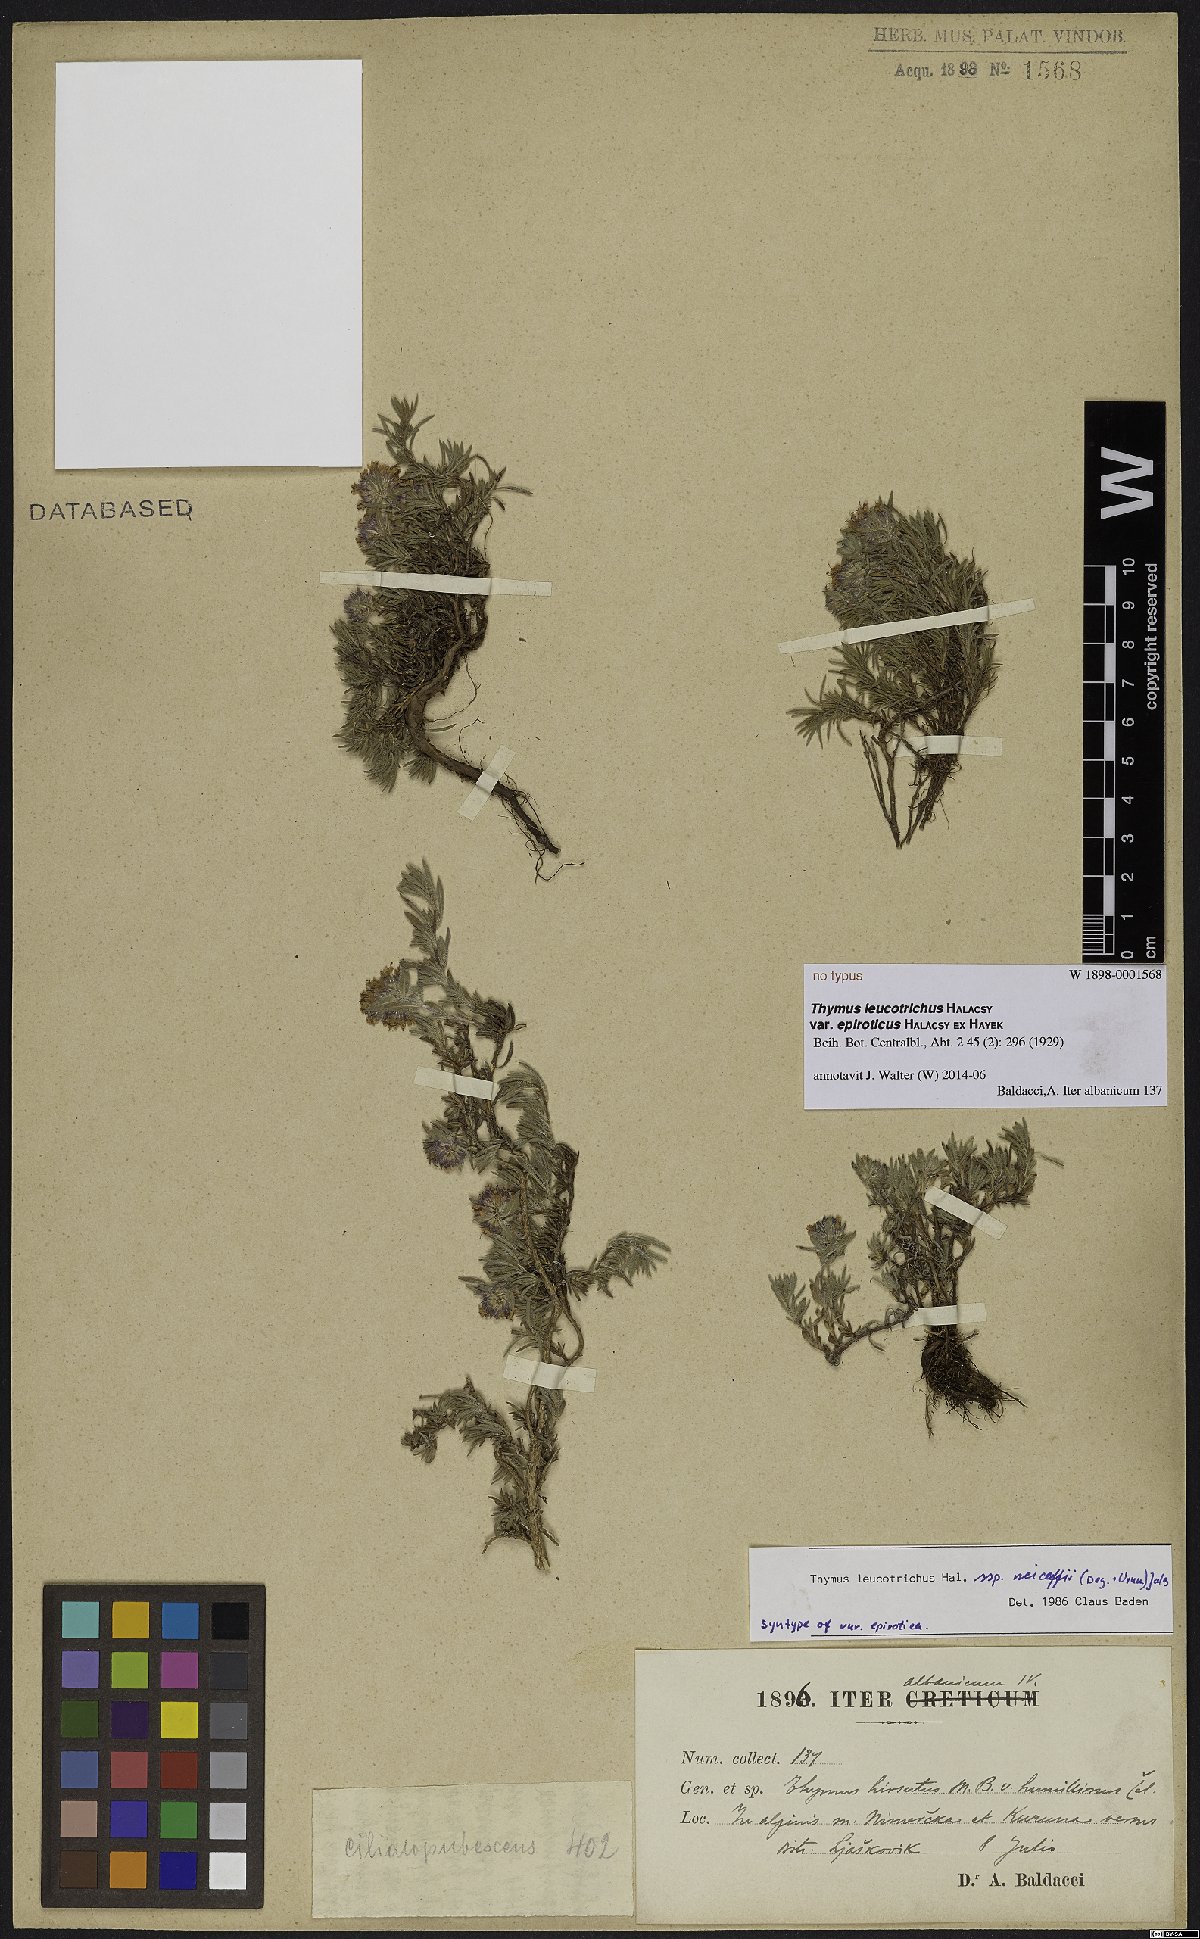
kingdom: Plantae
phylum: Tracheophyta
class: Magnoliopsida
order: Lamiales
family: Lamiaceae
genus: Thymus
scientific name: Thymus leucotrichus
